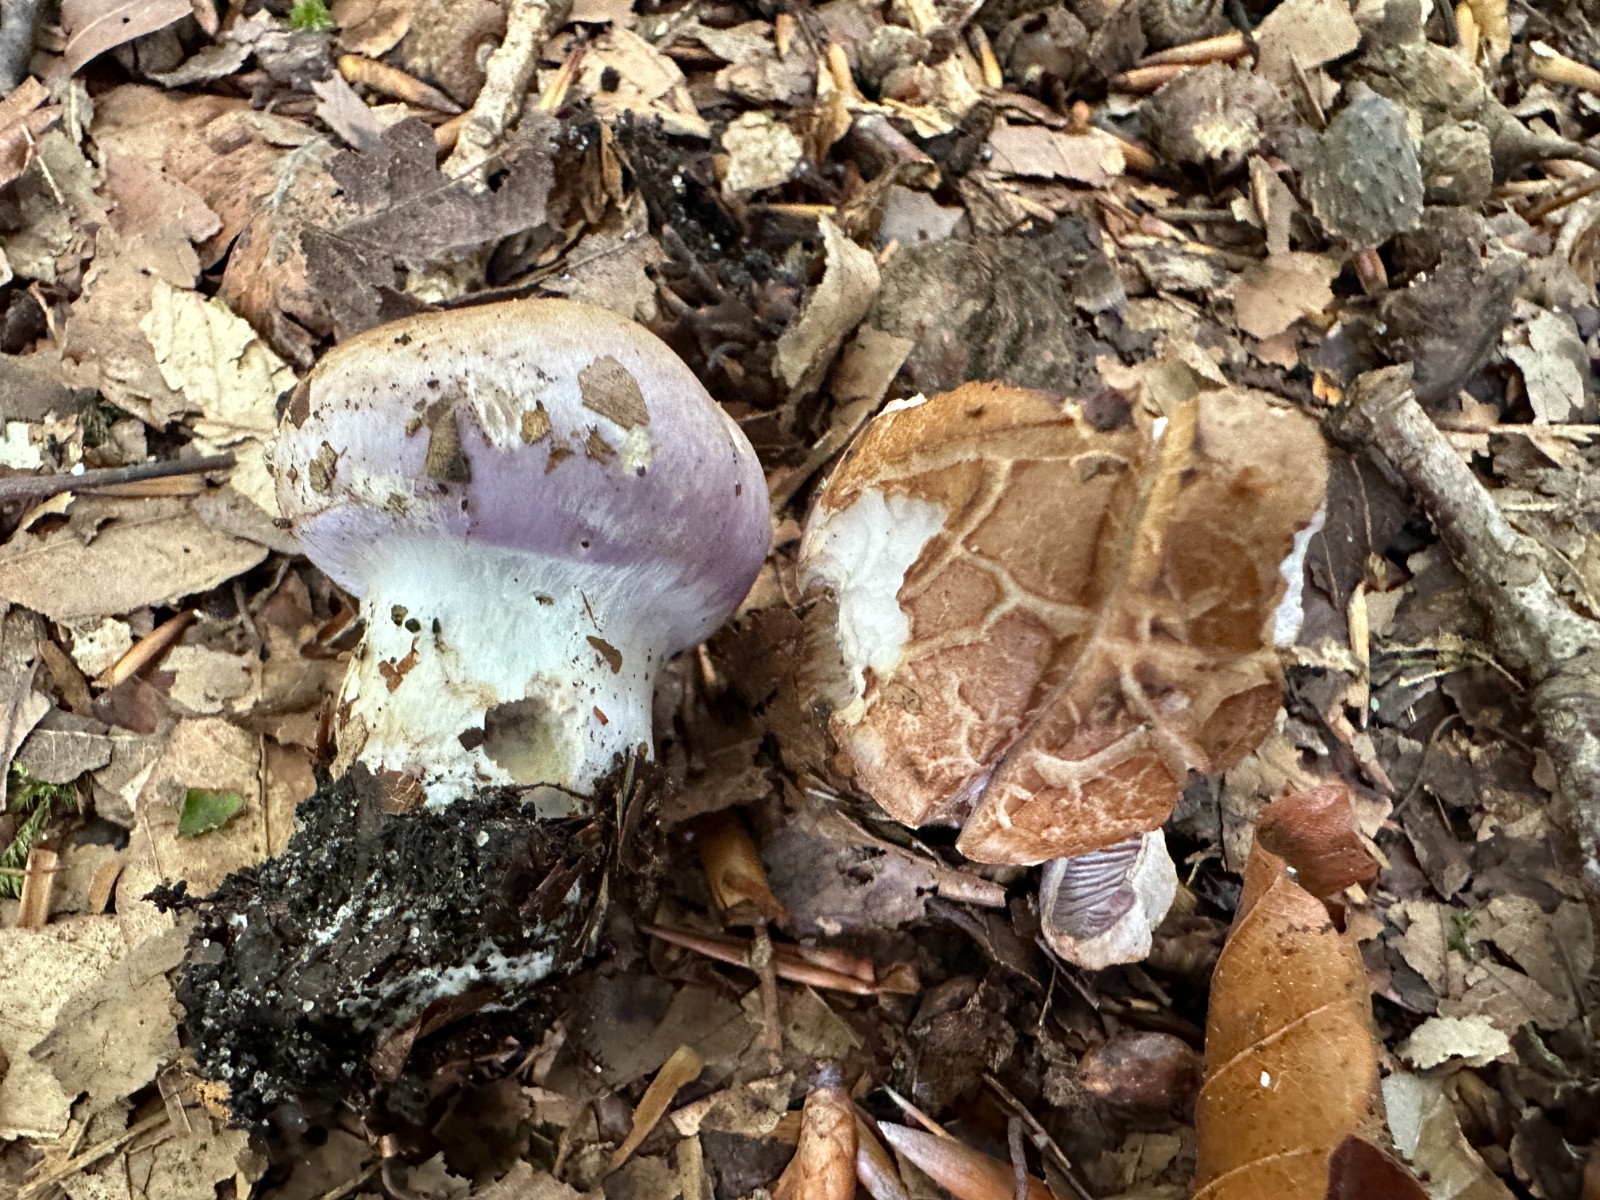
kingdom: Fungi
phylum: Basidiomycota
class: Agaricomycetes
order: Agaricales
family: Cortinariaceae
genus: Cortinarius
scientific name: Cortinarius largus
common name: violetrandet slørhat
